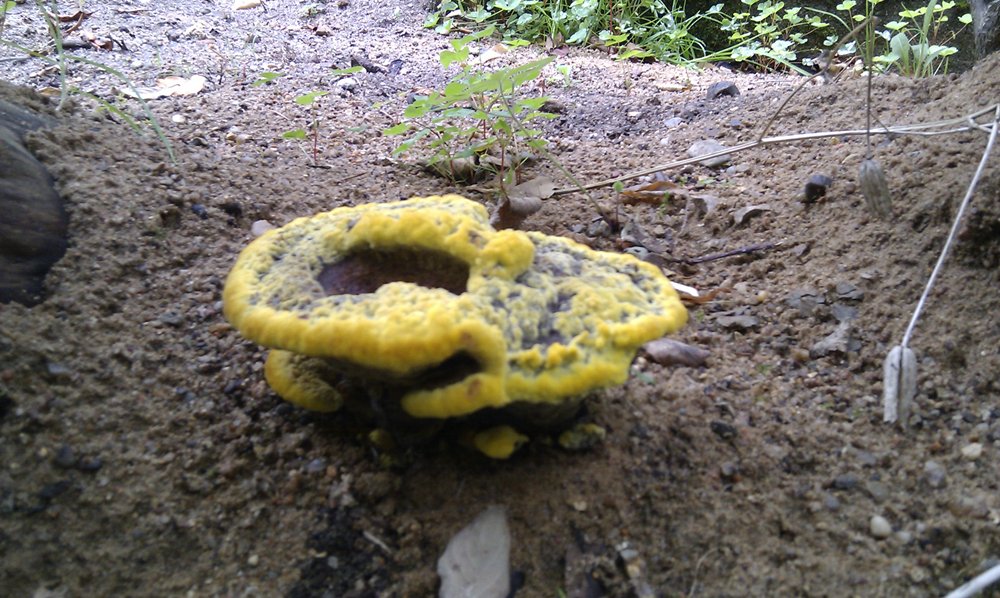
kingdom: Fungi
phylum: Basidiomycota
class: Agaricomycetes
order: Polyporales
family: Laetiporaceae
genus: Phaeolus
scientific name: Phaeolus schweinitzii
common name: brunporesvamp
